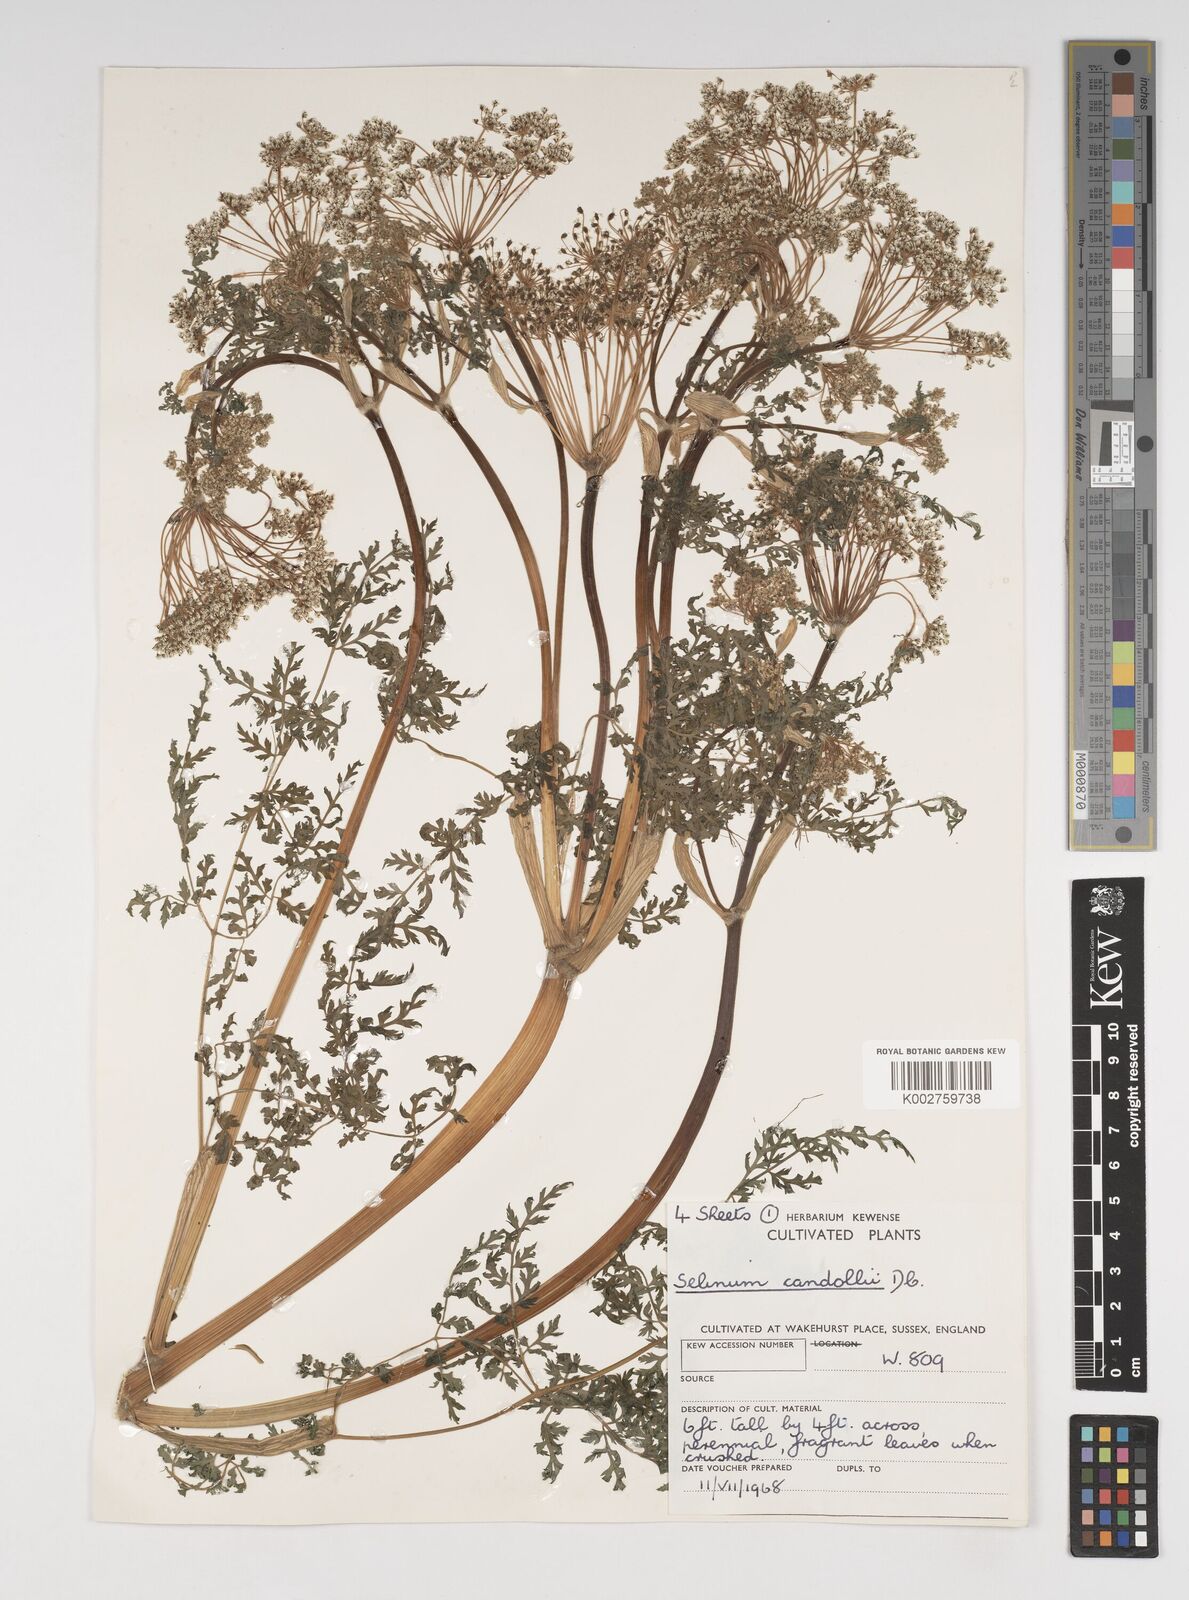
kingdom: Plantae
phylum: Tracheophyta
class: Magnoliopsida
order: Apiales
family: Apiaceae
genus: Oreocome
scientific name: Oreocome candollei
